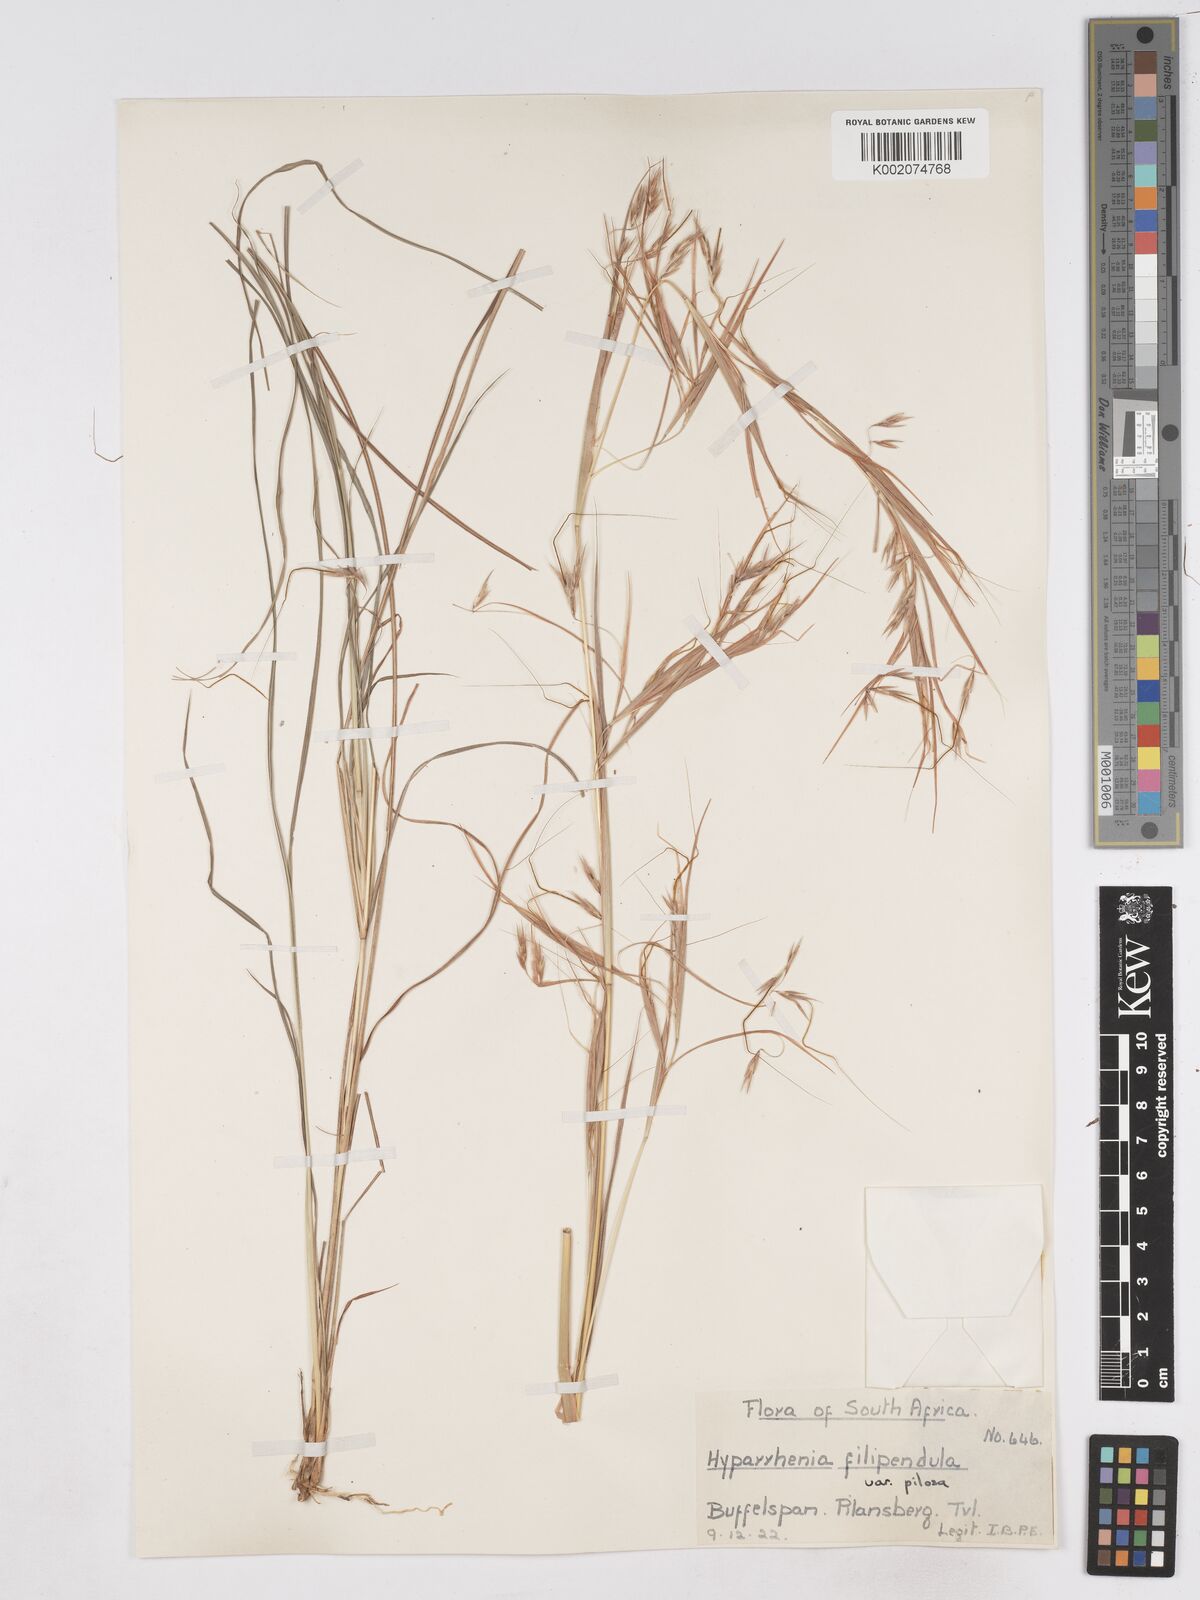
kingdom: Plantae
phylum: Tracheophyta
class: Liliopsida
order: Poales
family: Poaceae
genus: Hyparrhenia
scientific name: Hyparrhenia filipendula
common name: Tambookie grass
